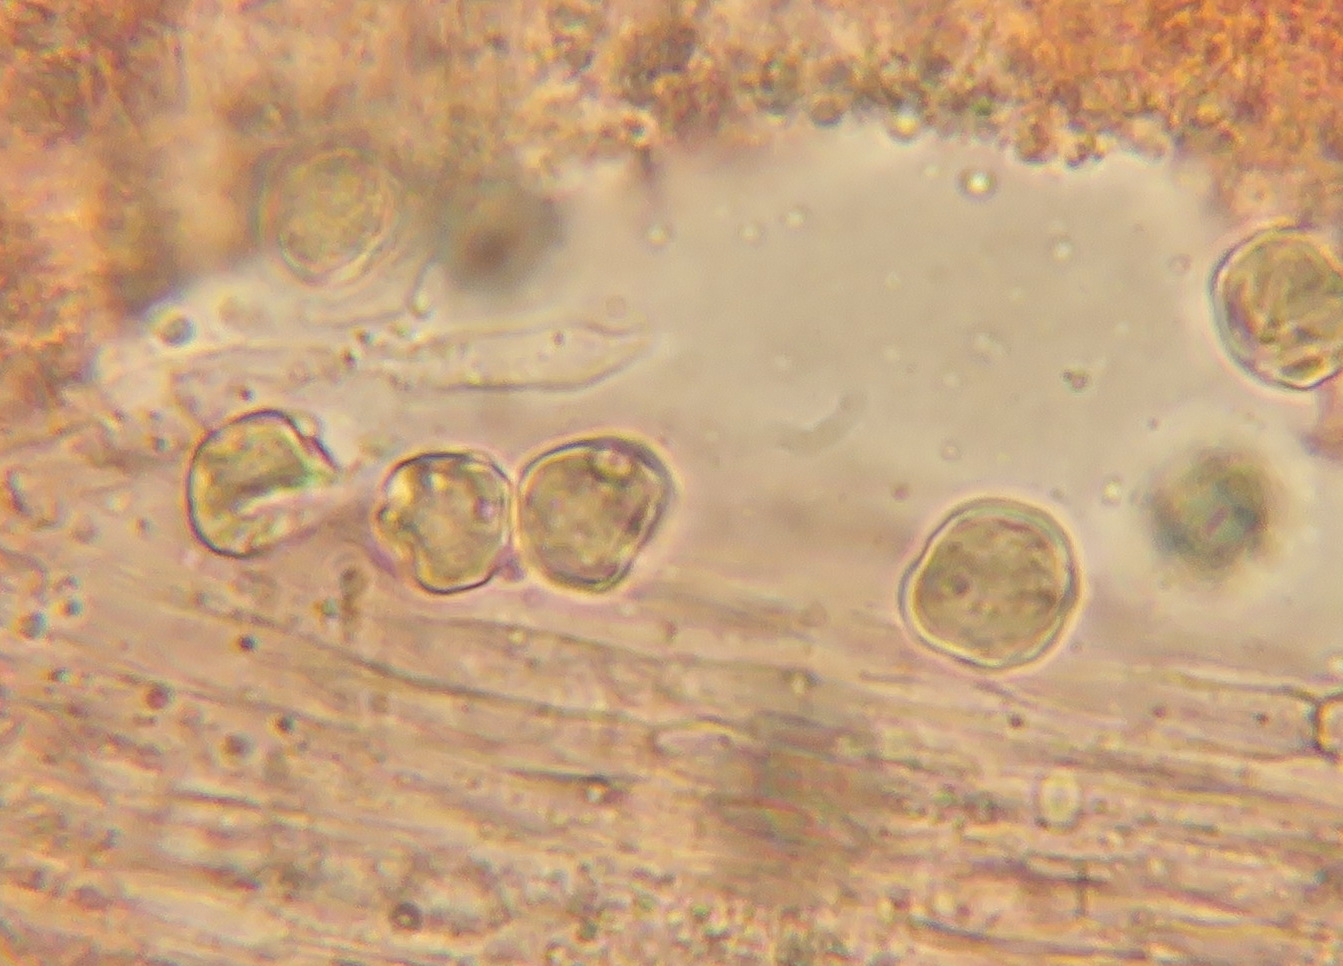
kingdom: Fungi
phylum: Basidiomycota
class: Agaricomycetes
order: Cantharellales
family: Hydnaceae
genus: Hydnum
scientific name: Hydnum umbilicatum
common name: navle-pigsvamp
